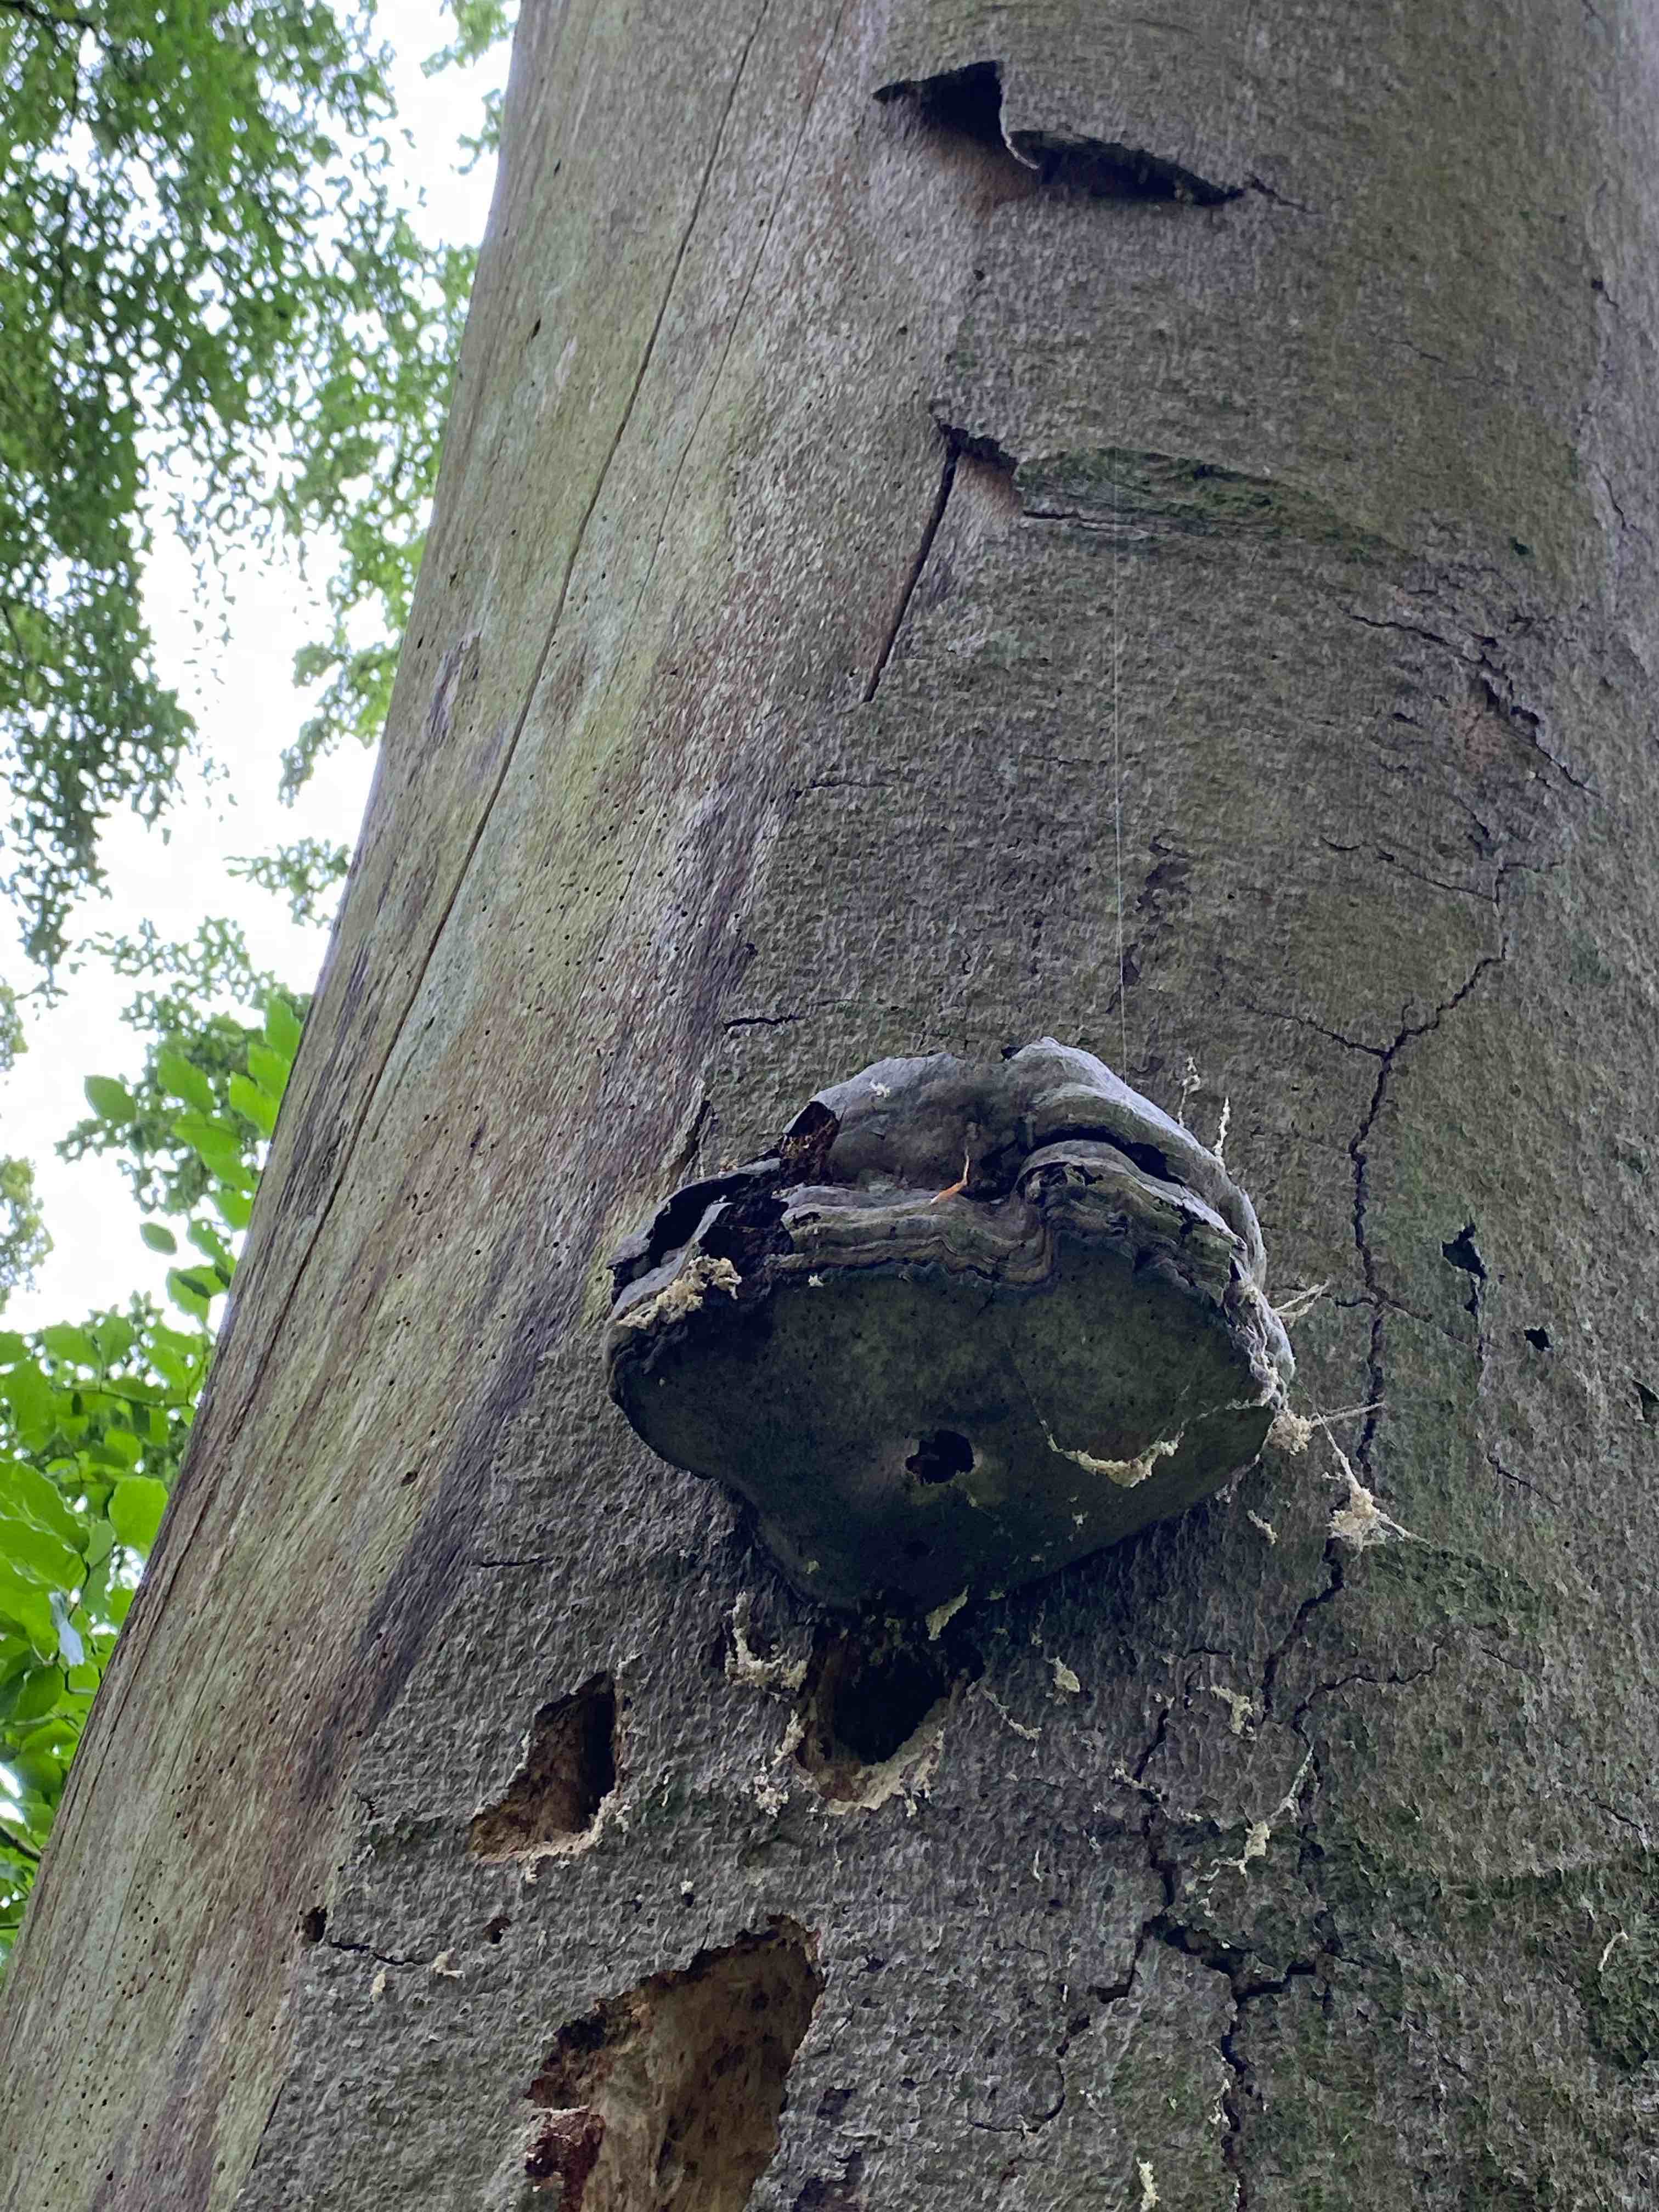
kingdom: Fungi
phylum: Basidiomycota
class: Agaricomycetes
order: Polyporales
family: Polyporaceae
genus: Fomes
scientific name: Fomes fomentarius
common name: tøndersvamp
